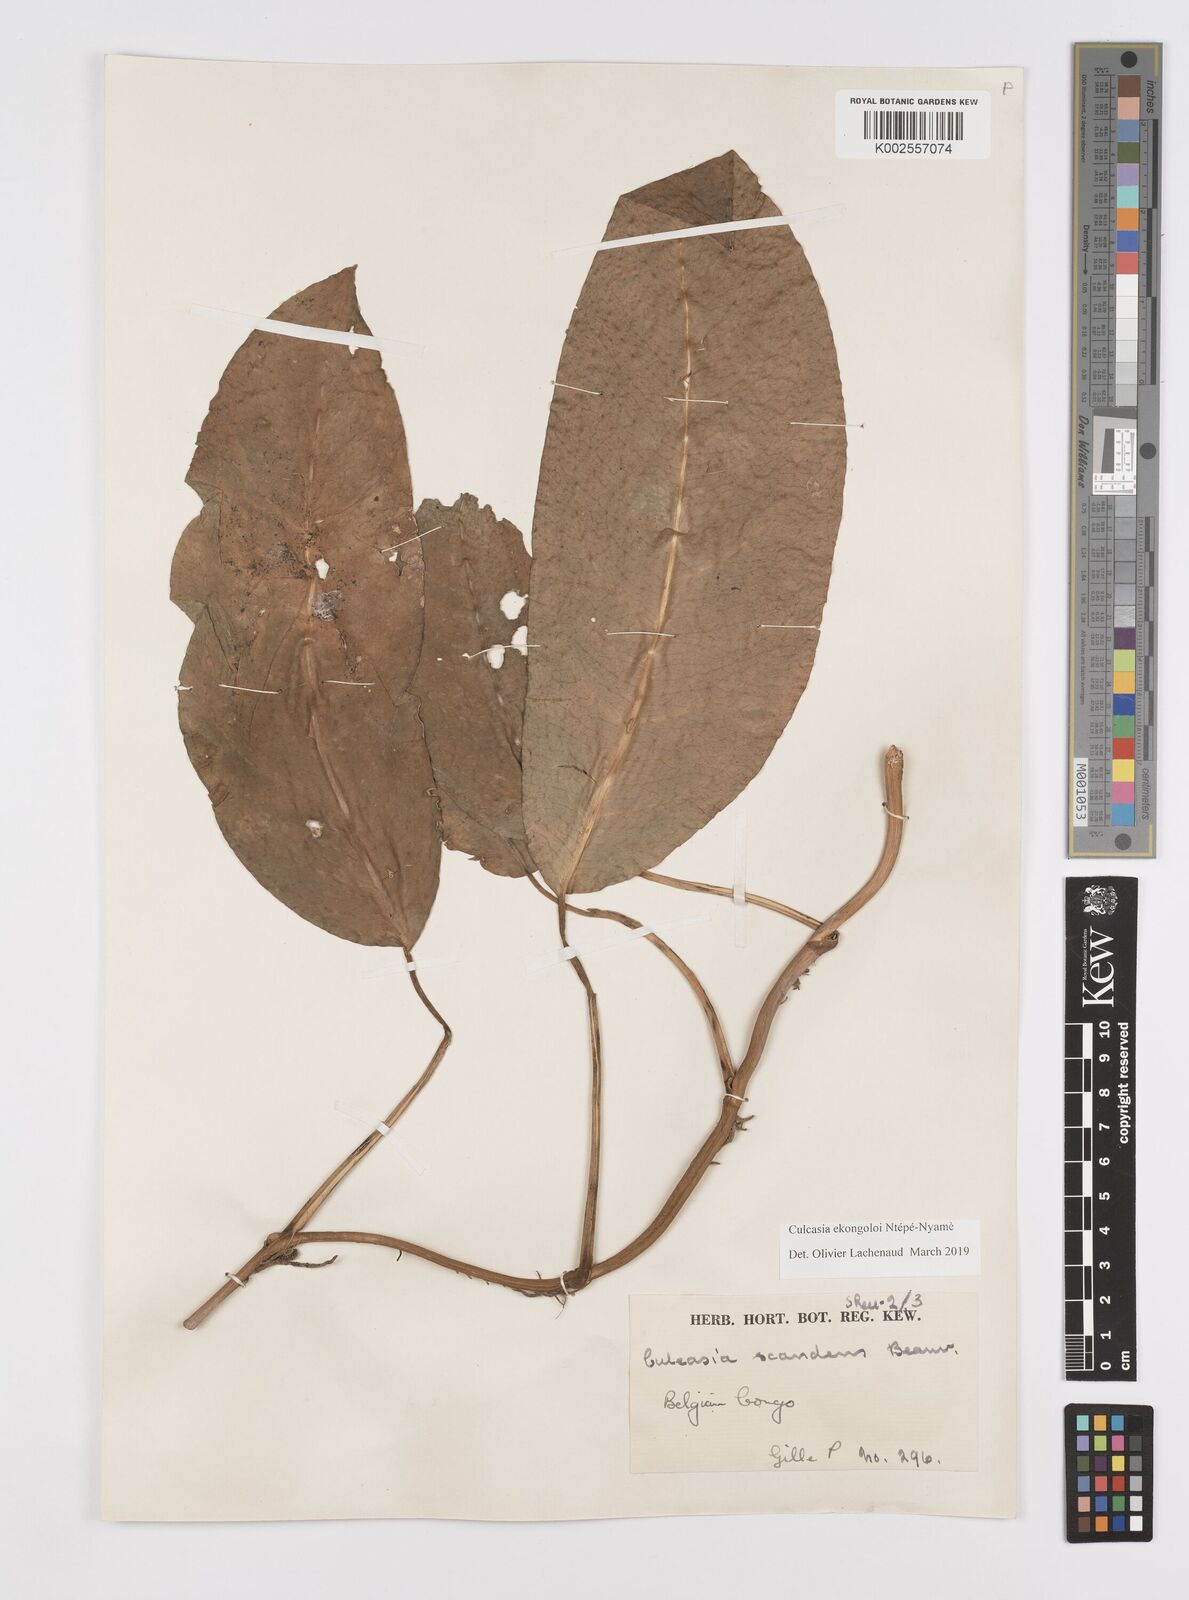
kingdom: Plantae
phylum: Tracheophyta
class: Liliopsida
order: Alismatales
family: Araceae
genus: Culcasia
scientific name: Culcasia ekongoloi
